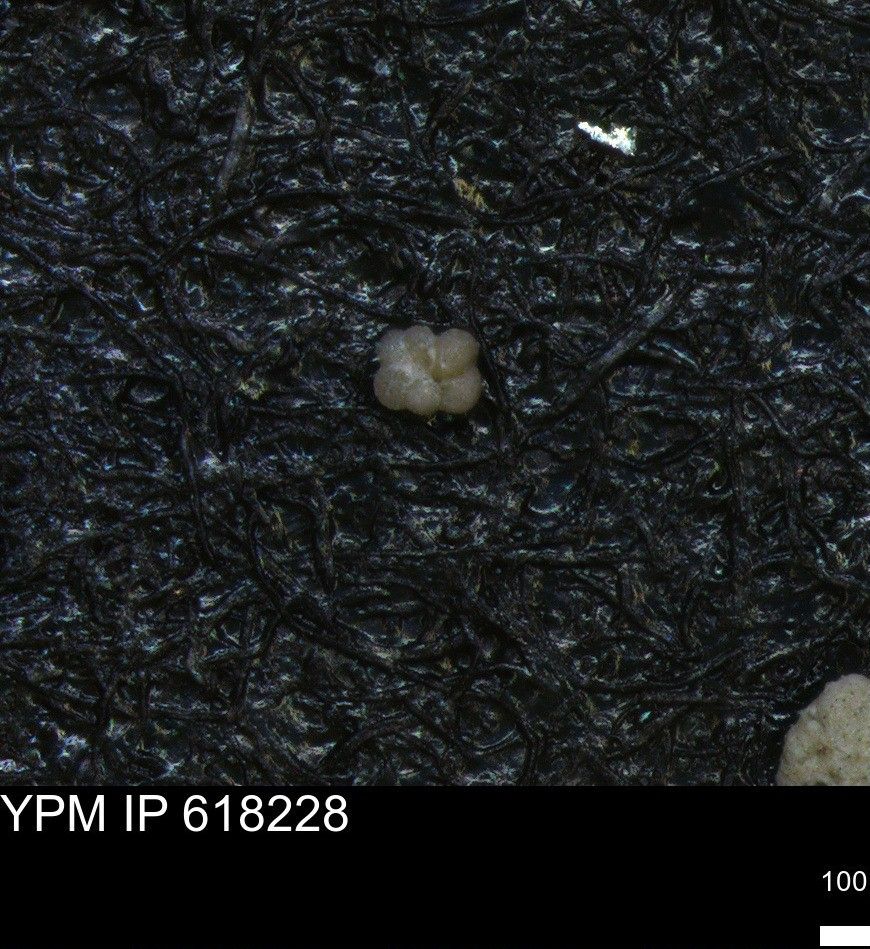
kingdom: Chromista
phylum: Foraminifera
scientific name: Foraminifera
